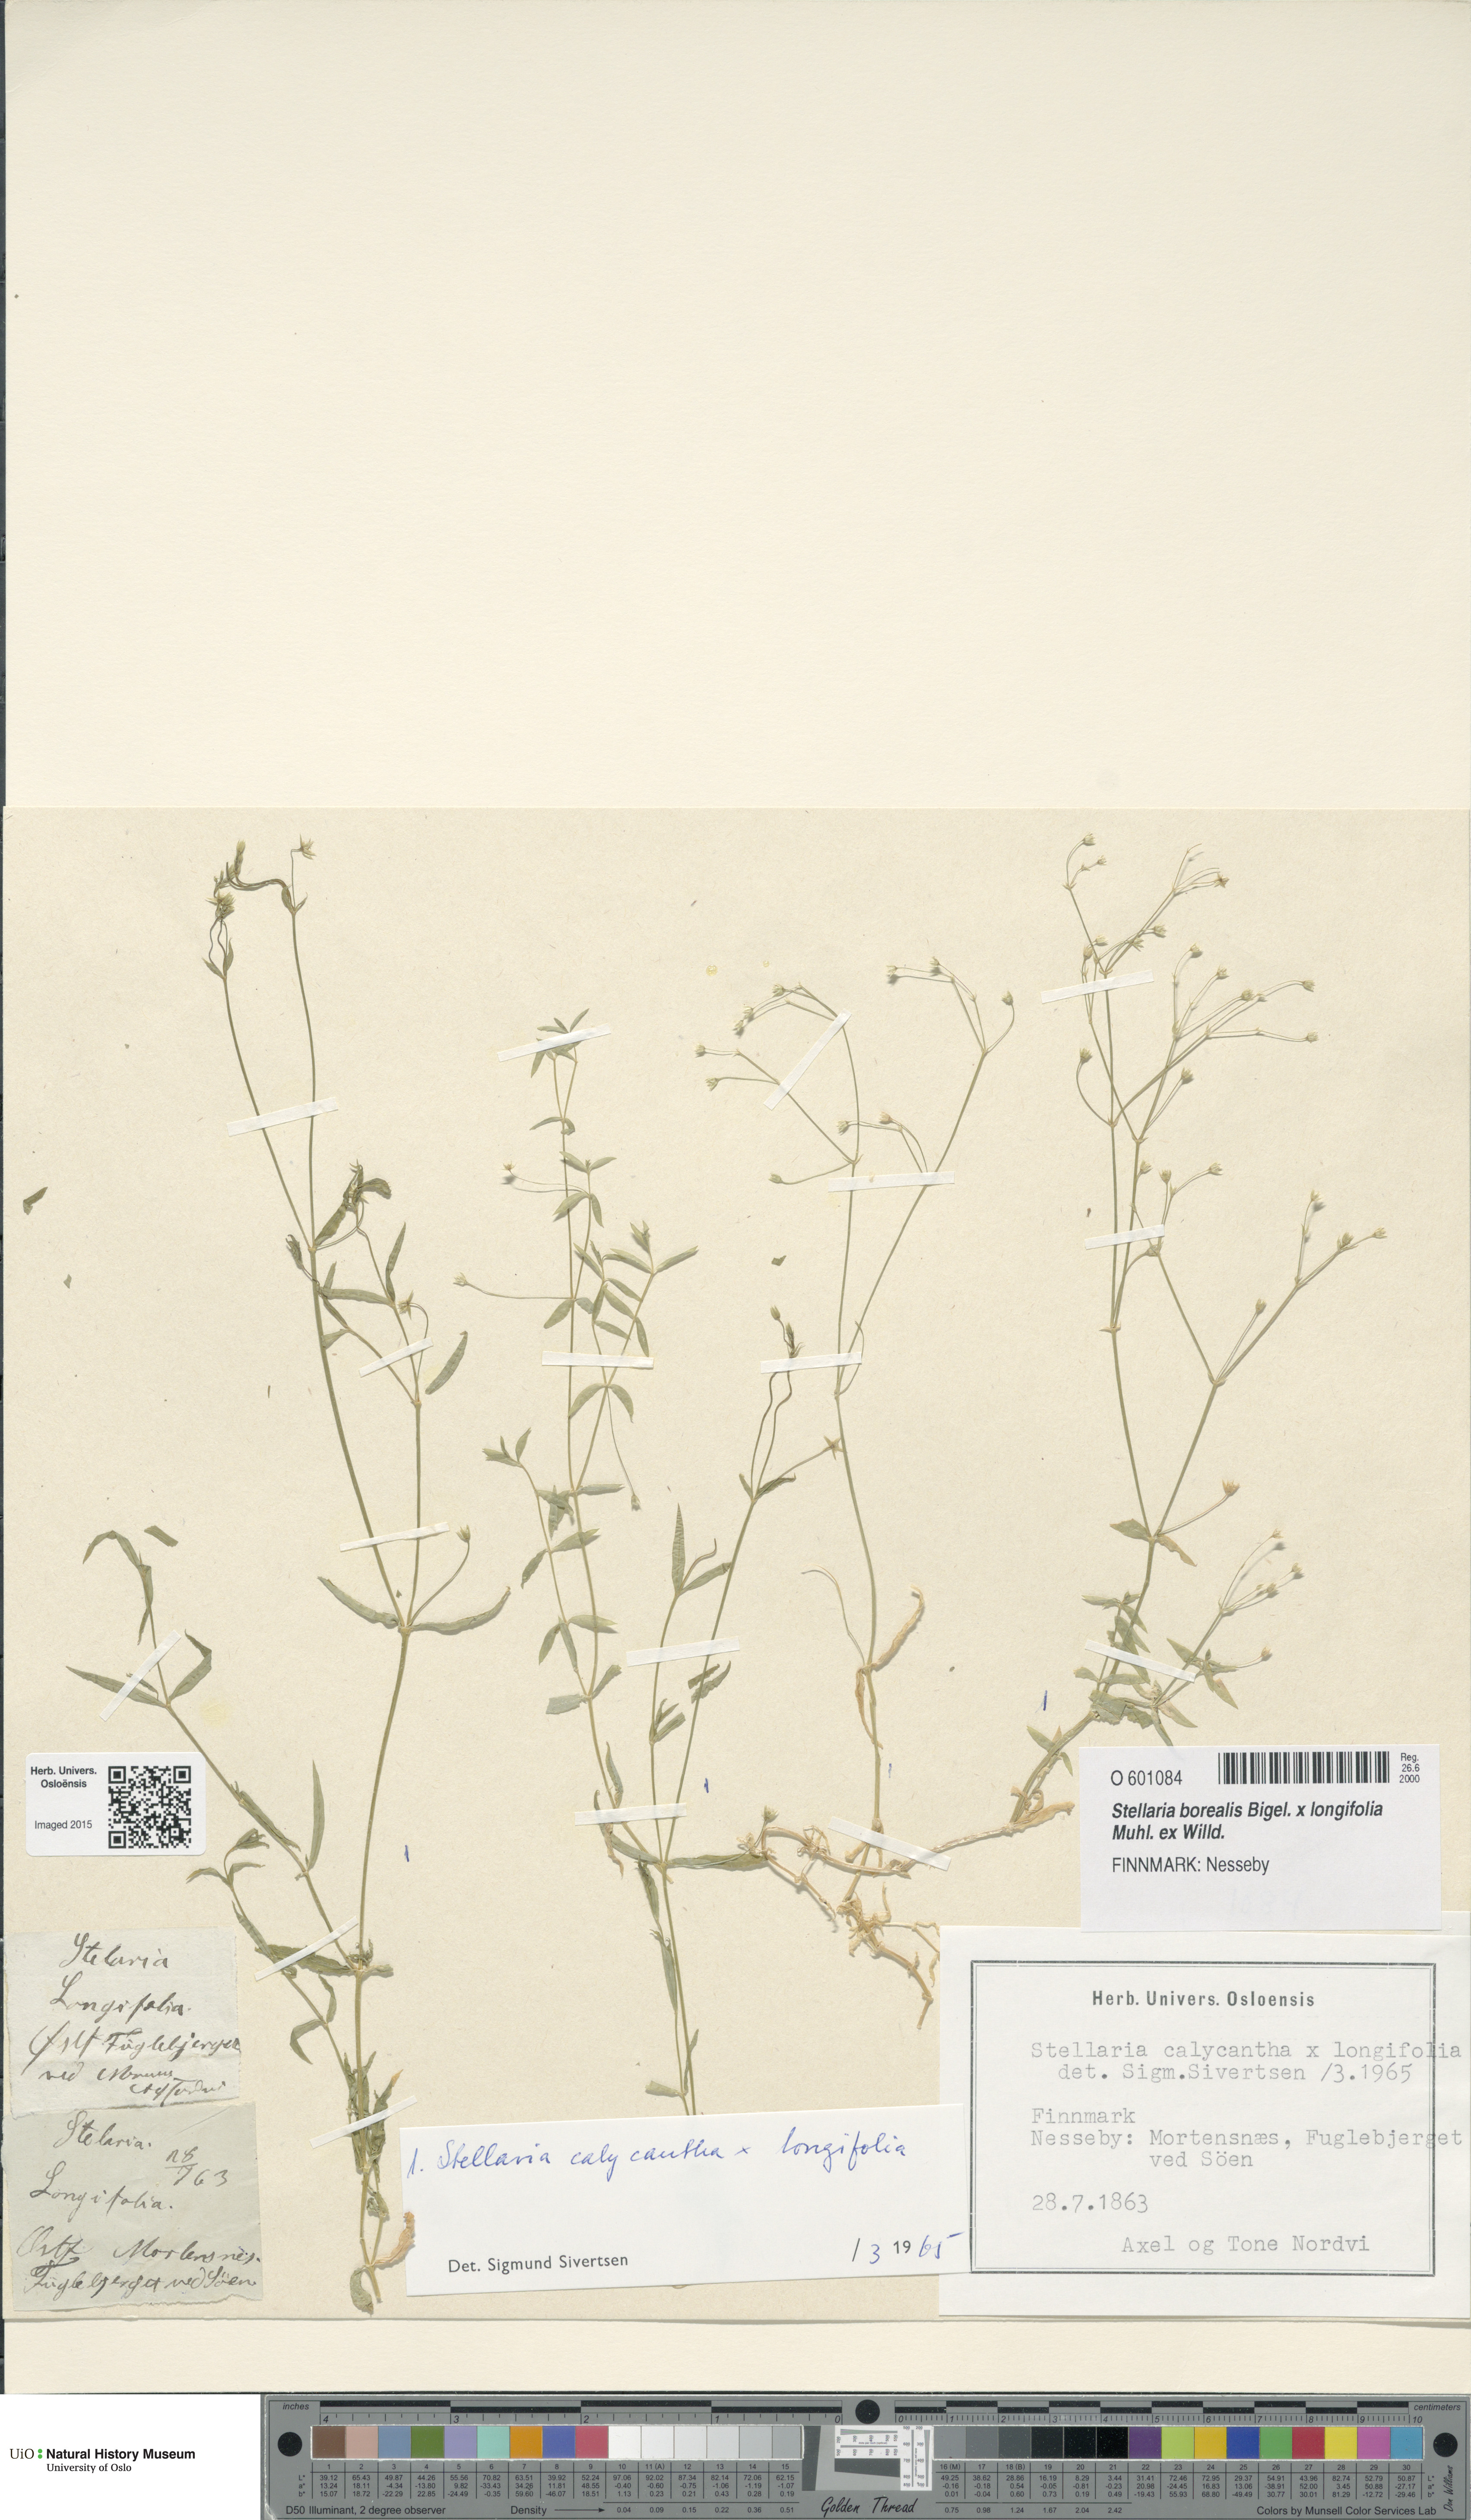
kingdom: Plantae
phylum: Tracheophyta
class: Magnoliopsida
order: Caryophyllales
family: Caryophyllaceae
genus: Stellaria
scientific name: Stellaria
